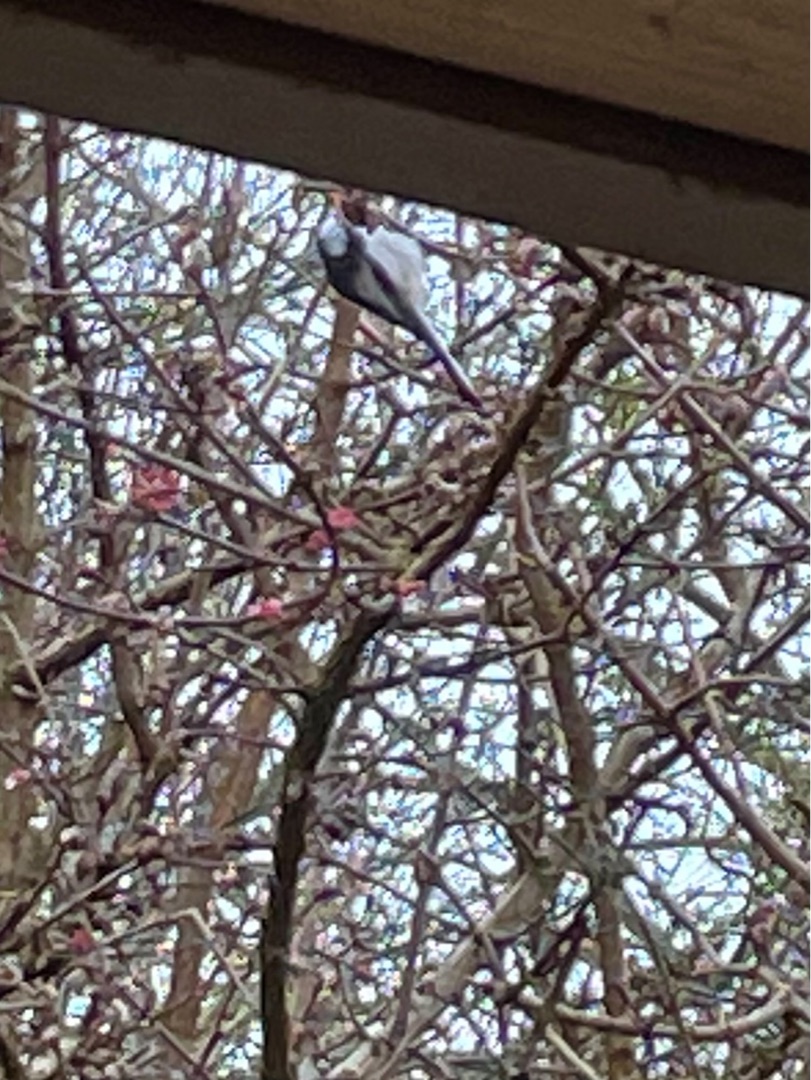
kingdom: Animalia
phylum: Chordata
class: Aves
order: Passeriformes
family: Aegithalidae
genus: Aegithalos
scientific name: Aegithalos caudatus
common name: Halemejse
